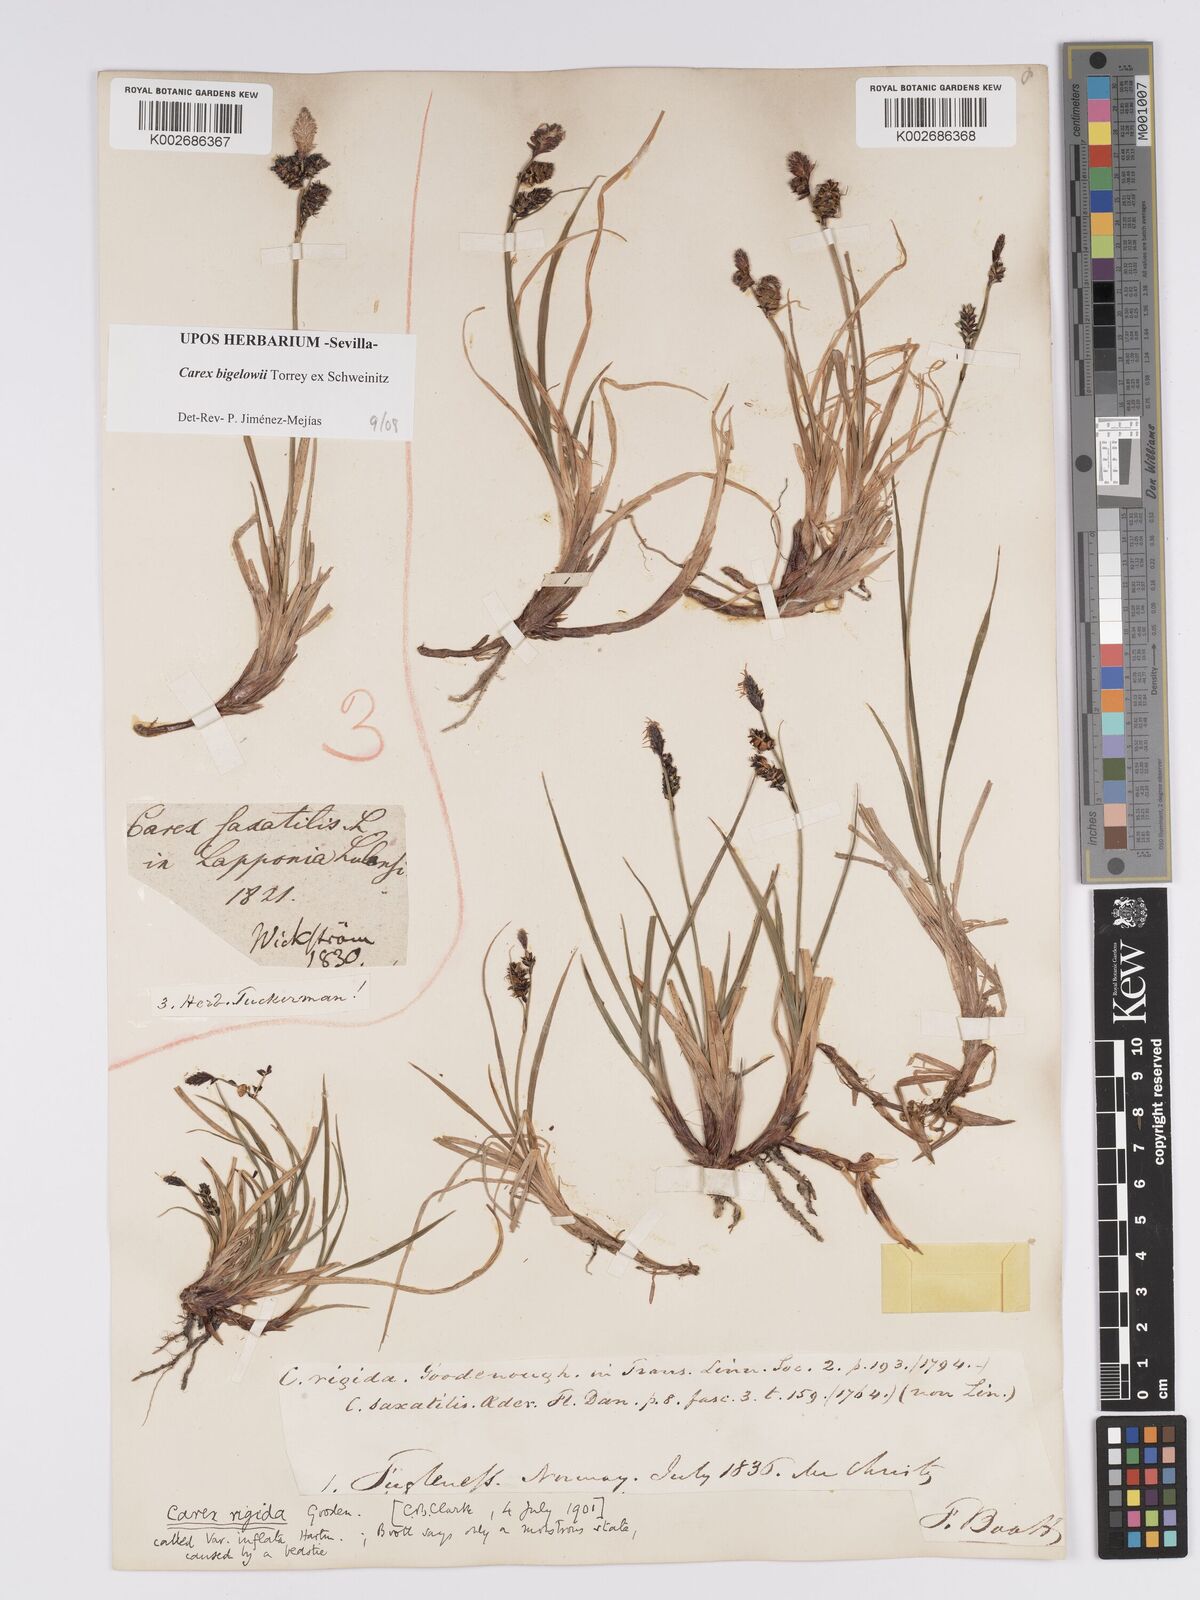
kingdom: Plantae
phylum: Tracheophyta
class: Liliopsida
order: Poales
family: Cyperaceae
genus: Carex
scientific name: Carex bigelowii
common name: Stiff sedge
